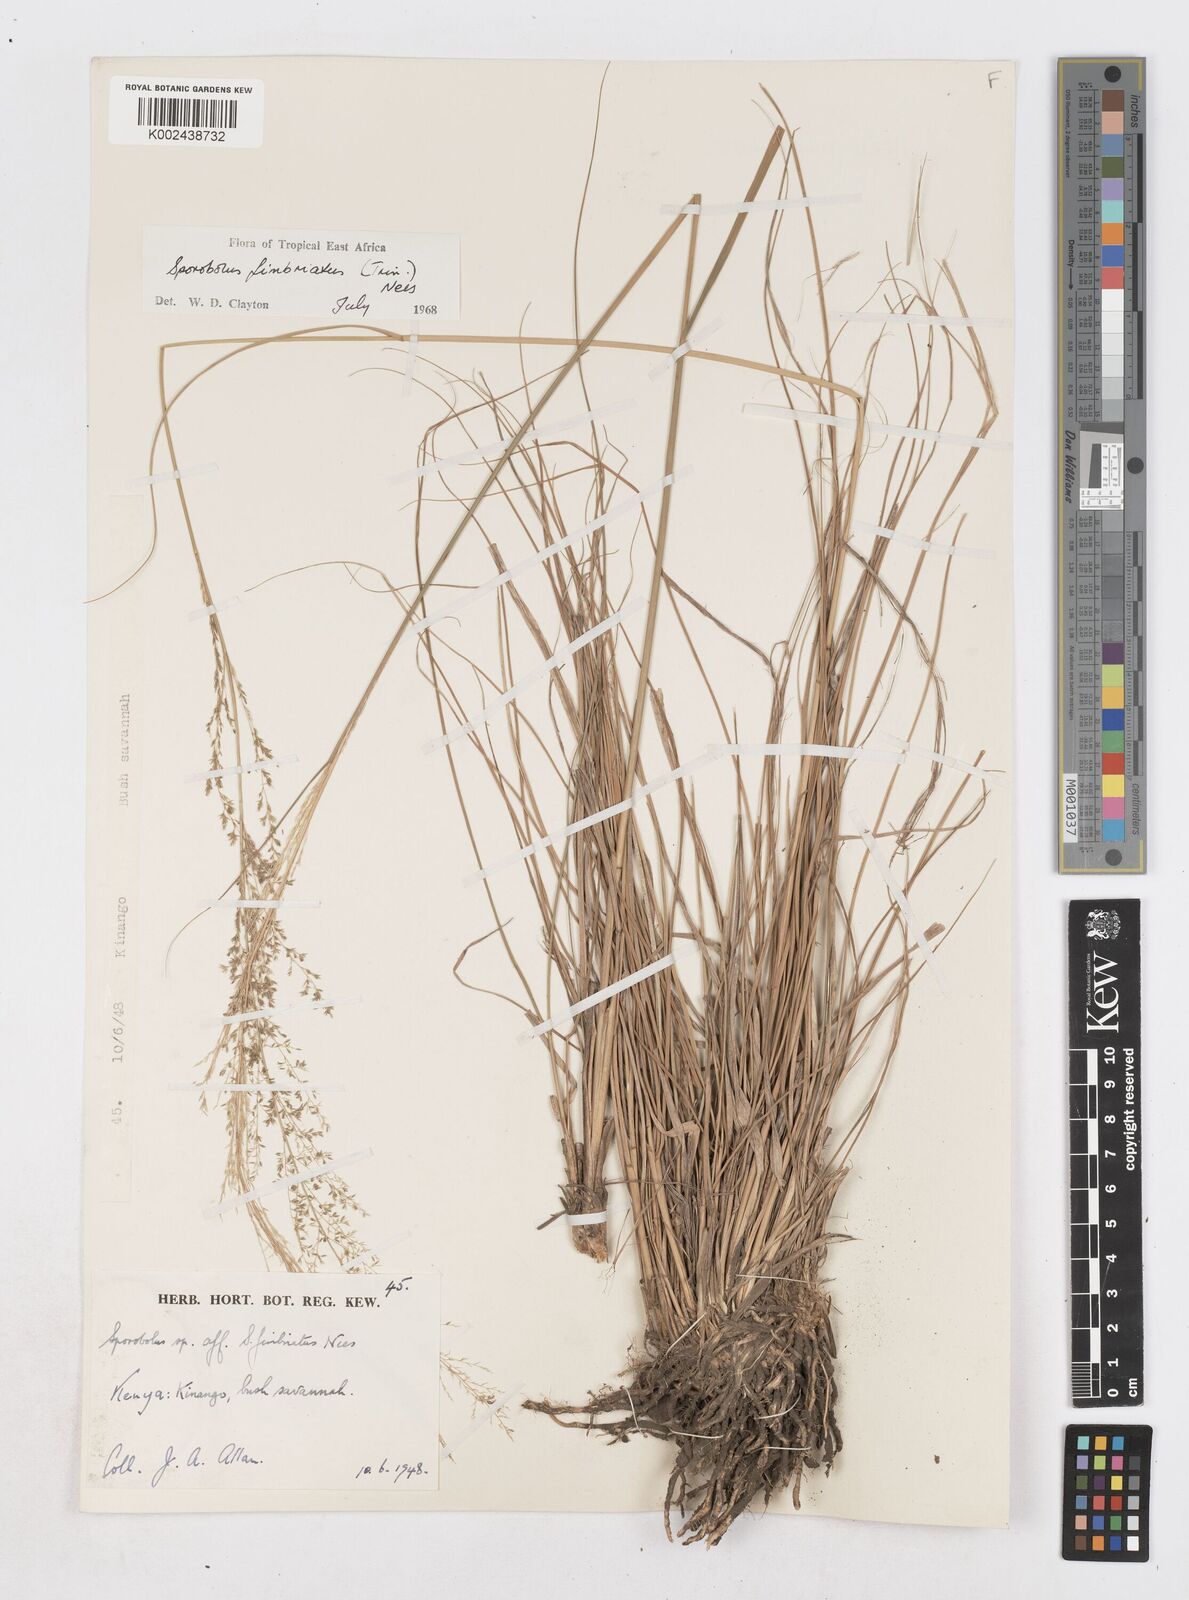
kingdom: Plantae
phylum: Tracheophyta
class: Liliopsida
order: Poales
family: Poaceae
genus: Sporobolus
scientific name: Sporobolus fimbriatus
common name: Fringed dropseed
